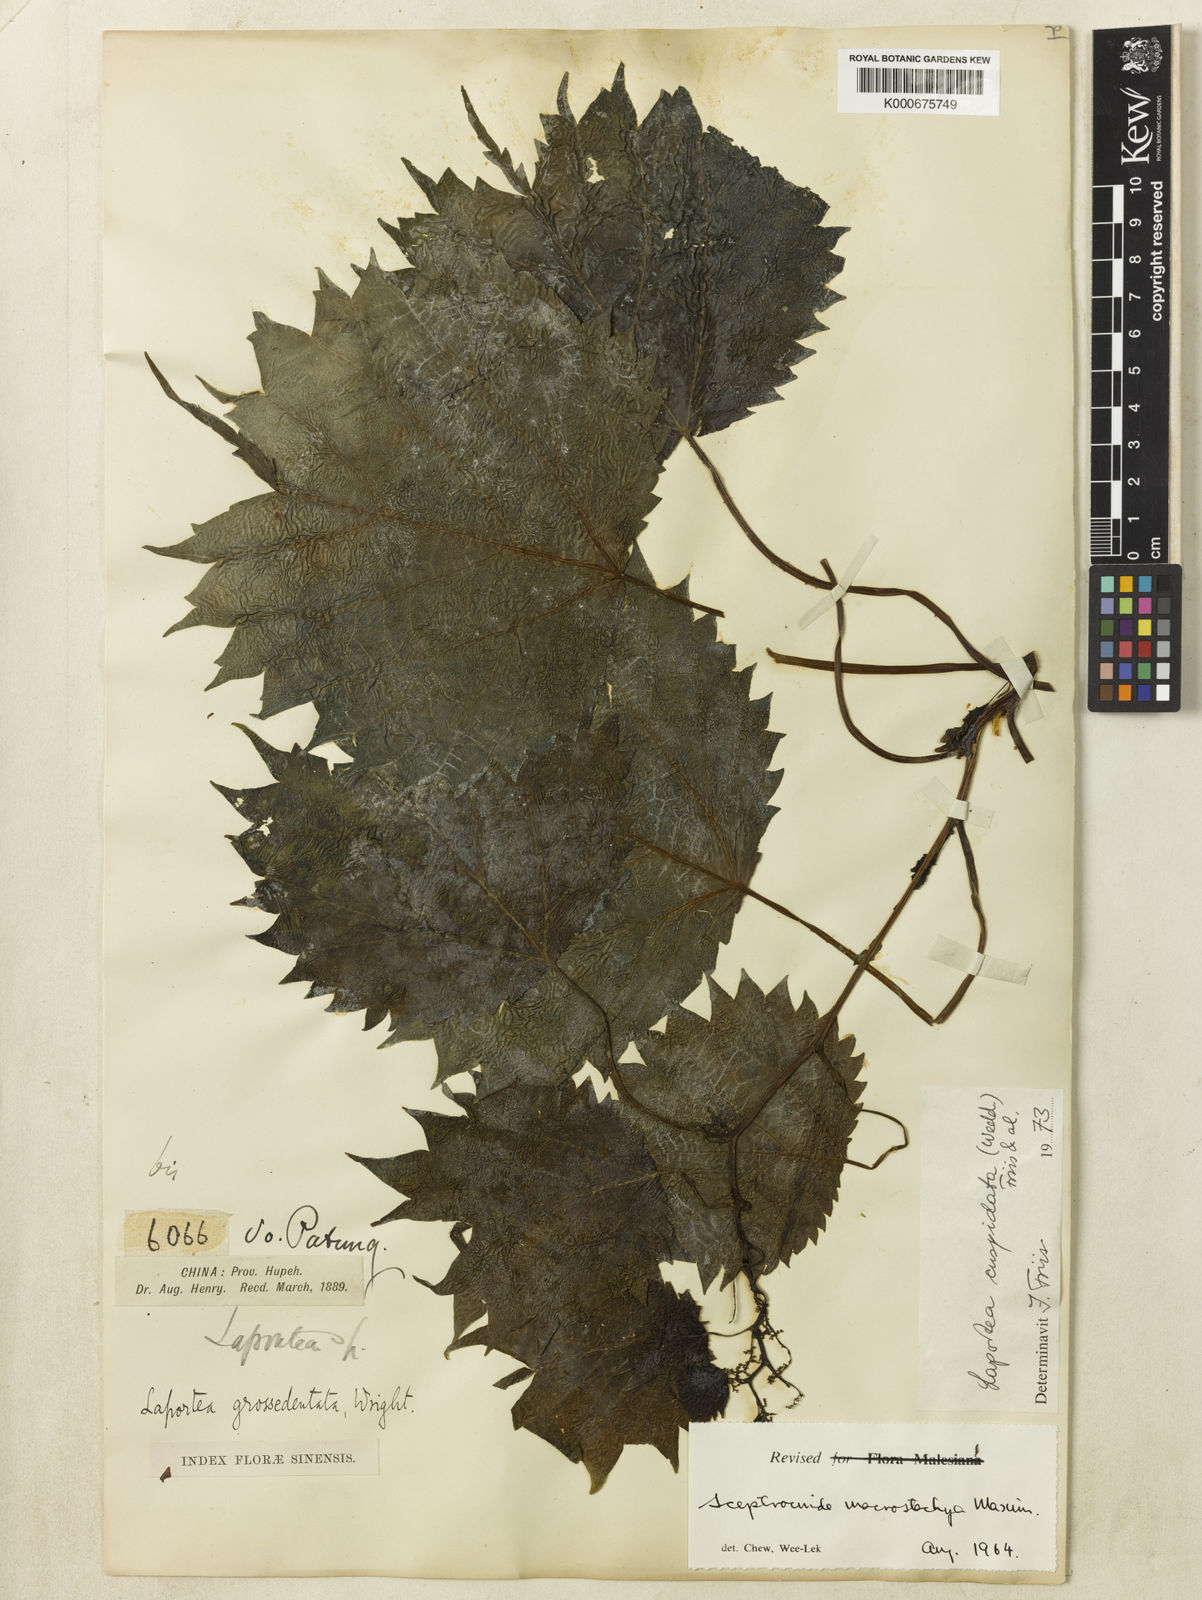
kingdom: Plantae
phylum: Tracheophyta
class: Magnoliopsida
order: Rosales
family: Urticaceae
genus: Laportea
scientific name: Laportea cuspidata
